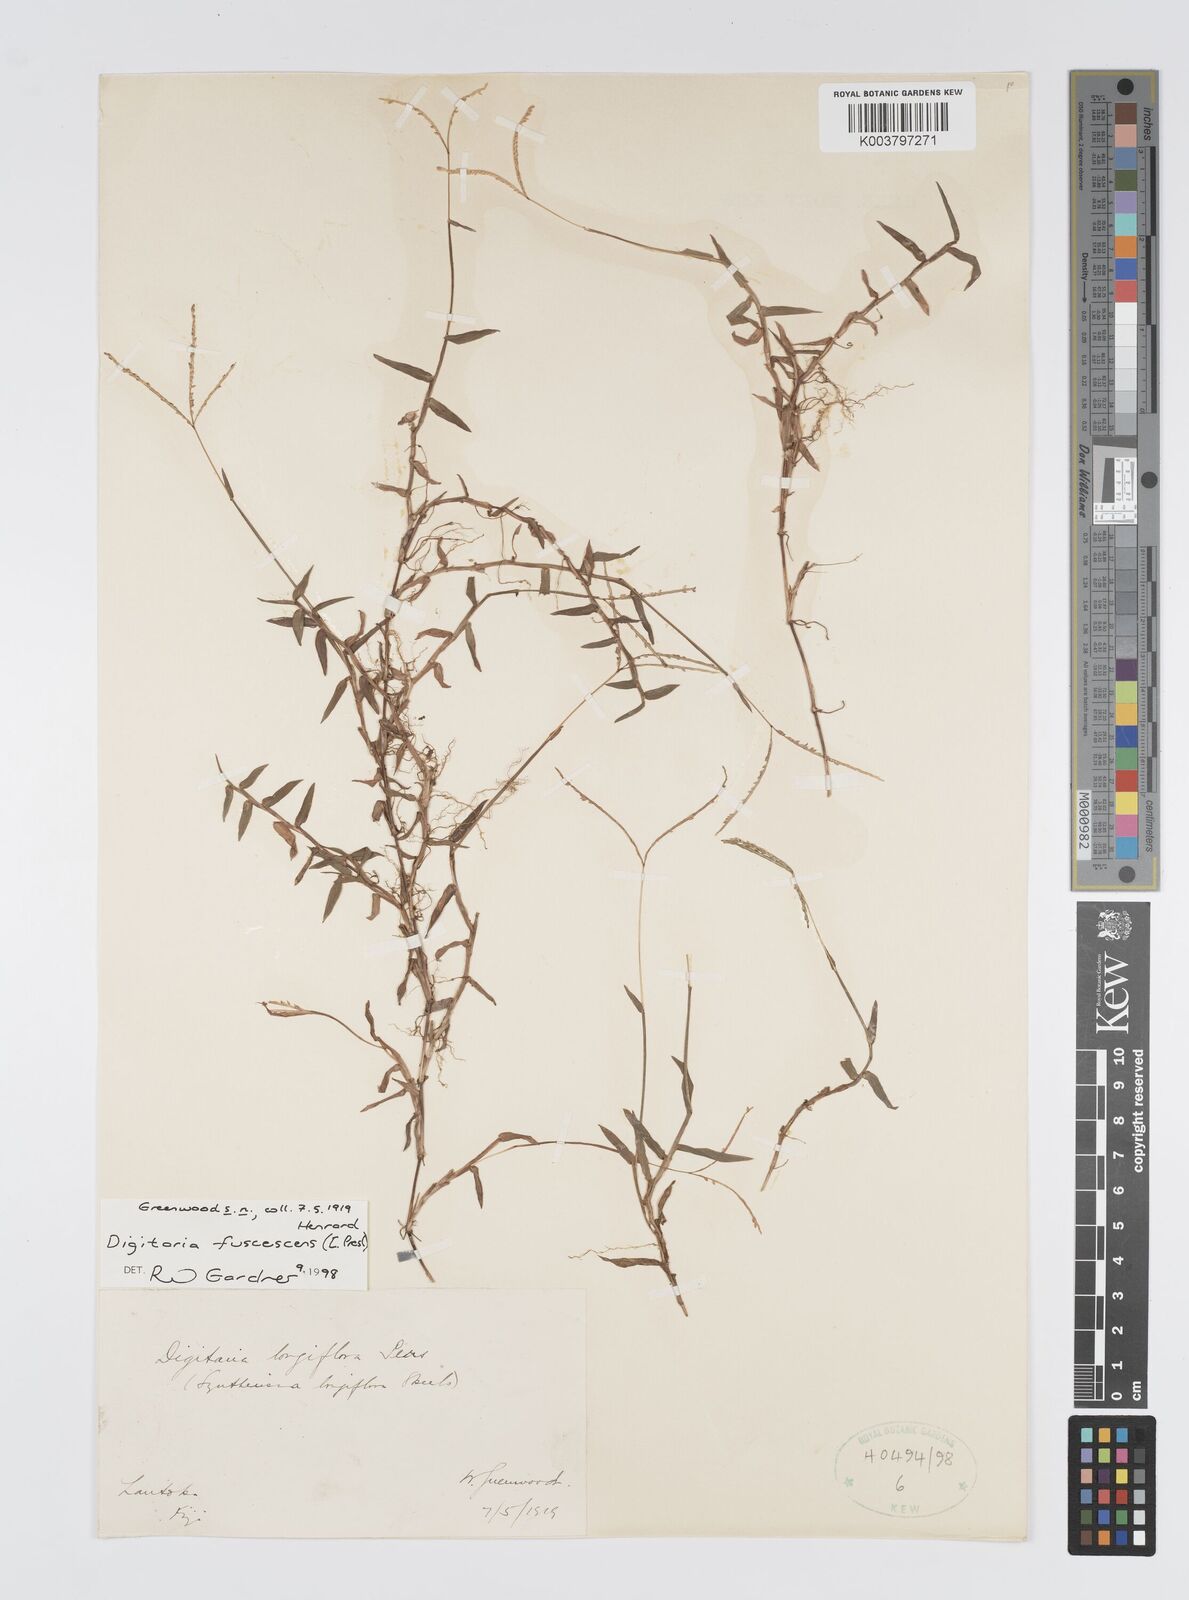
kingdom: Plantae
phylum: Tracheophyta
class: Liliopsida
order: Poales
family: Poaceae
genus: Digitaria
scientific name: Digitaria fuscescens
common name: Yellow crabgrass
